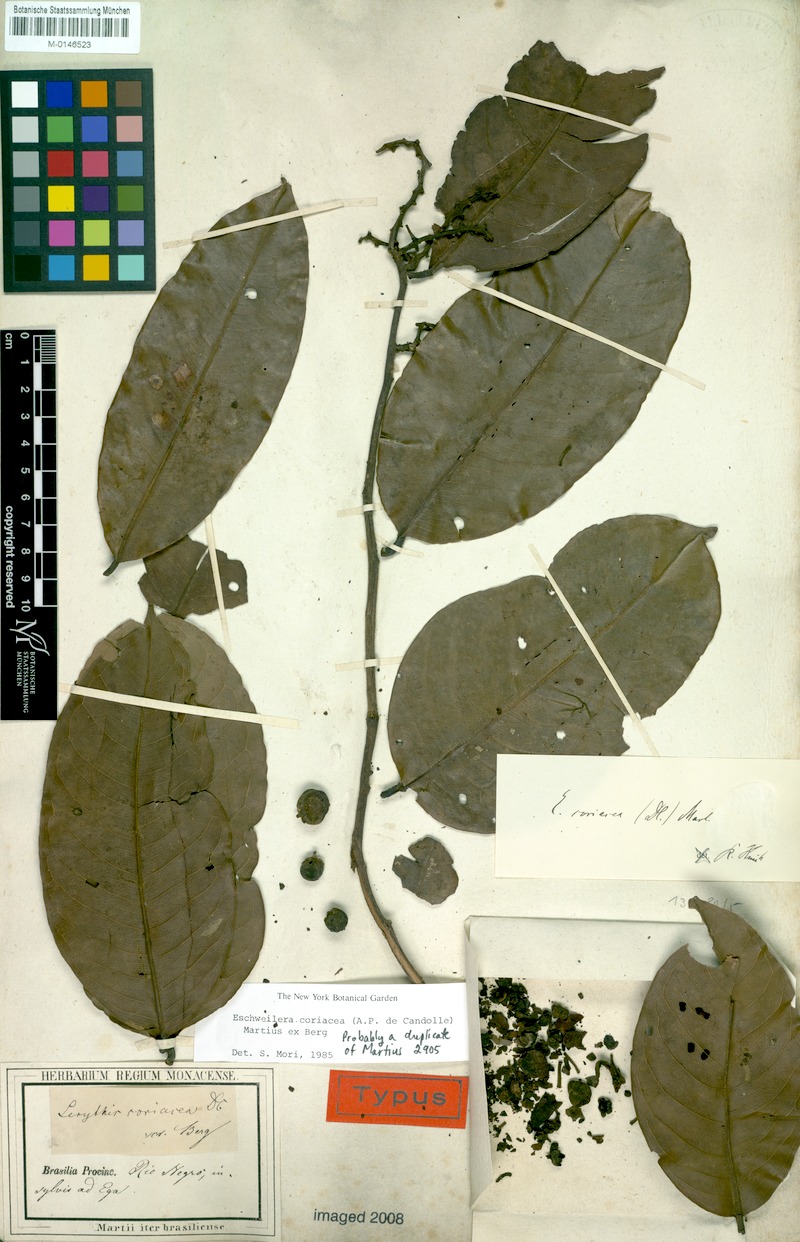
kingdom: Plantae
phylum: Tracheophyta
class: Magnoliopsida
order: Ericales
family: Lecythidaceae
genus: Eschweilera
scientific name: Eschweilera coriacea
